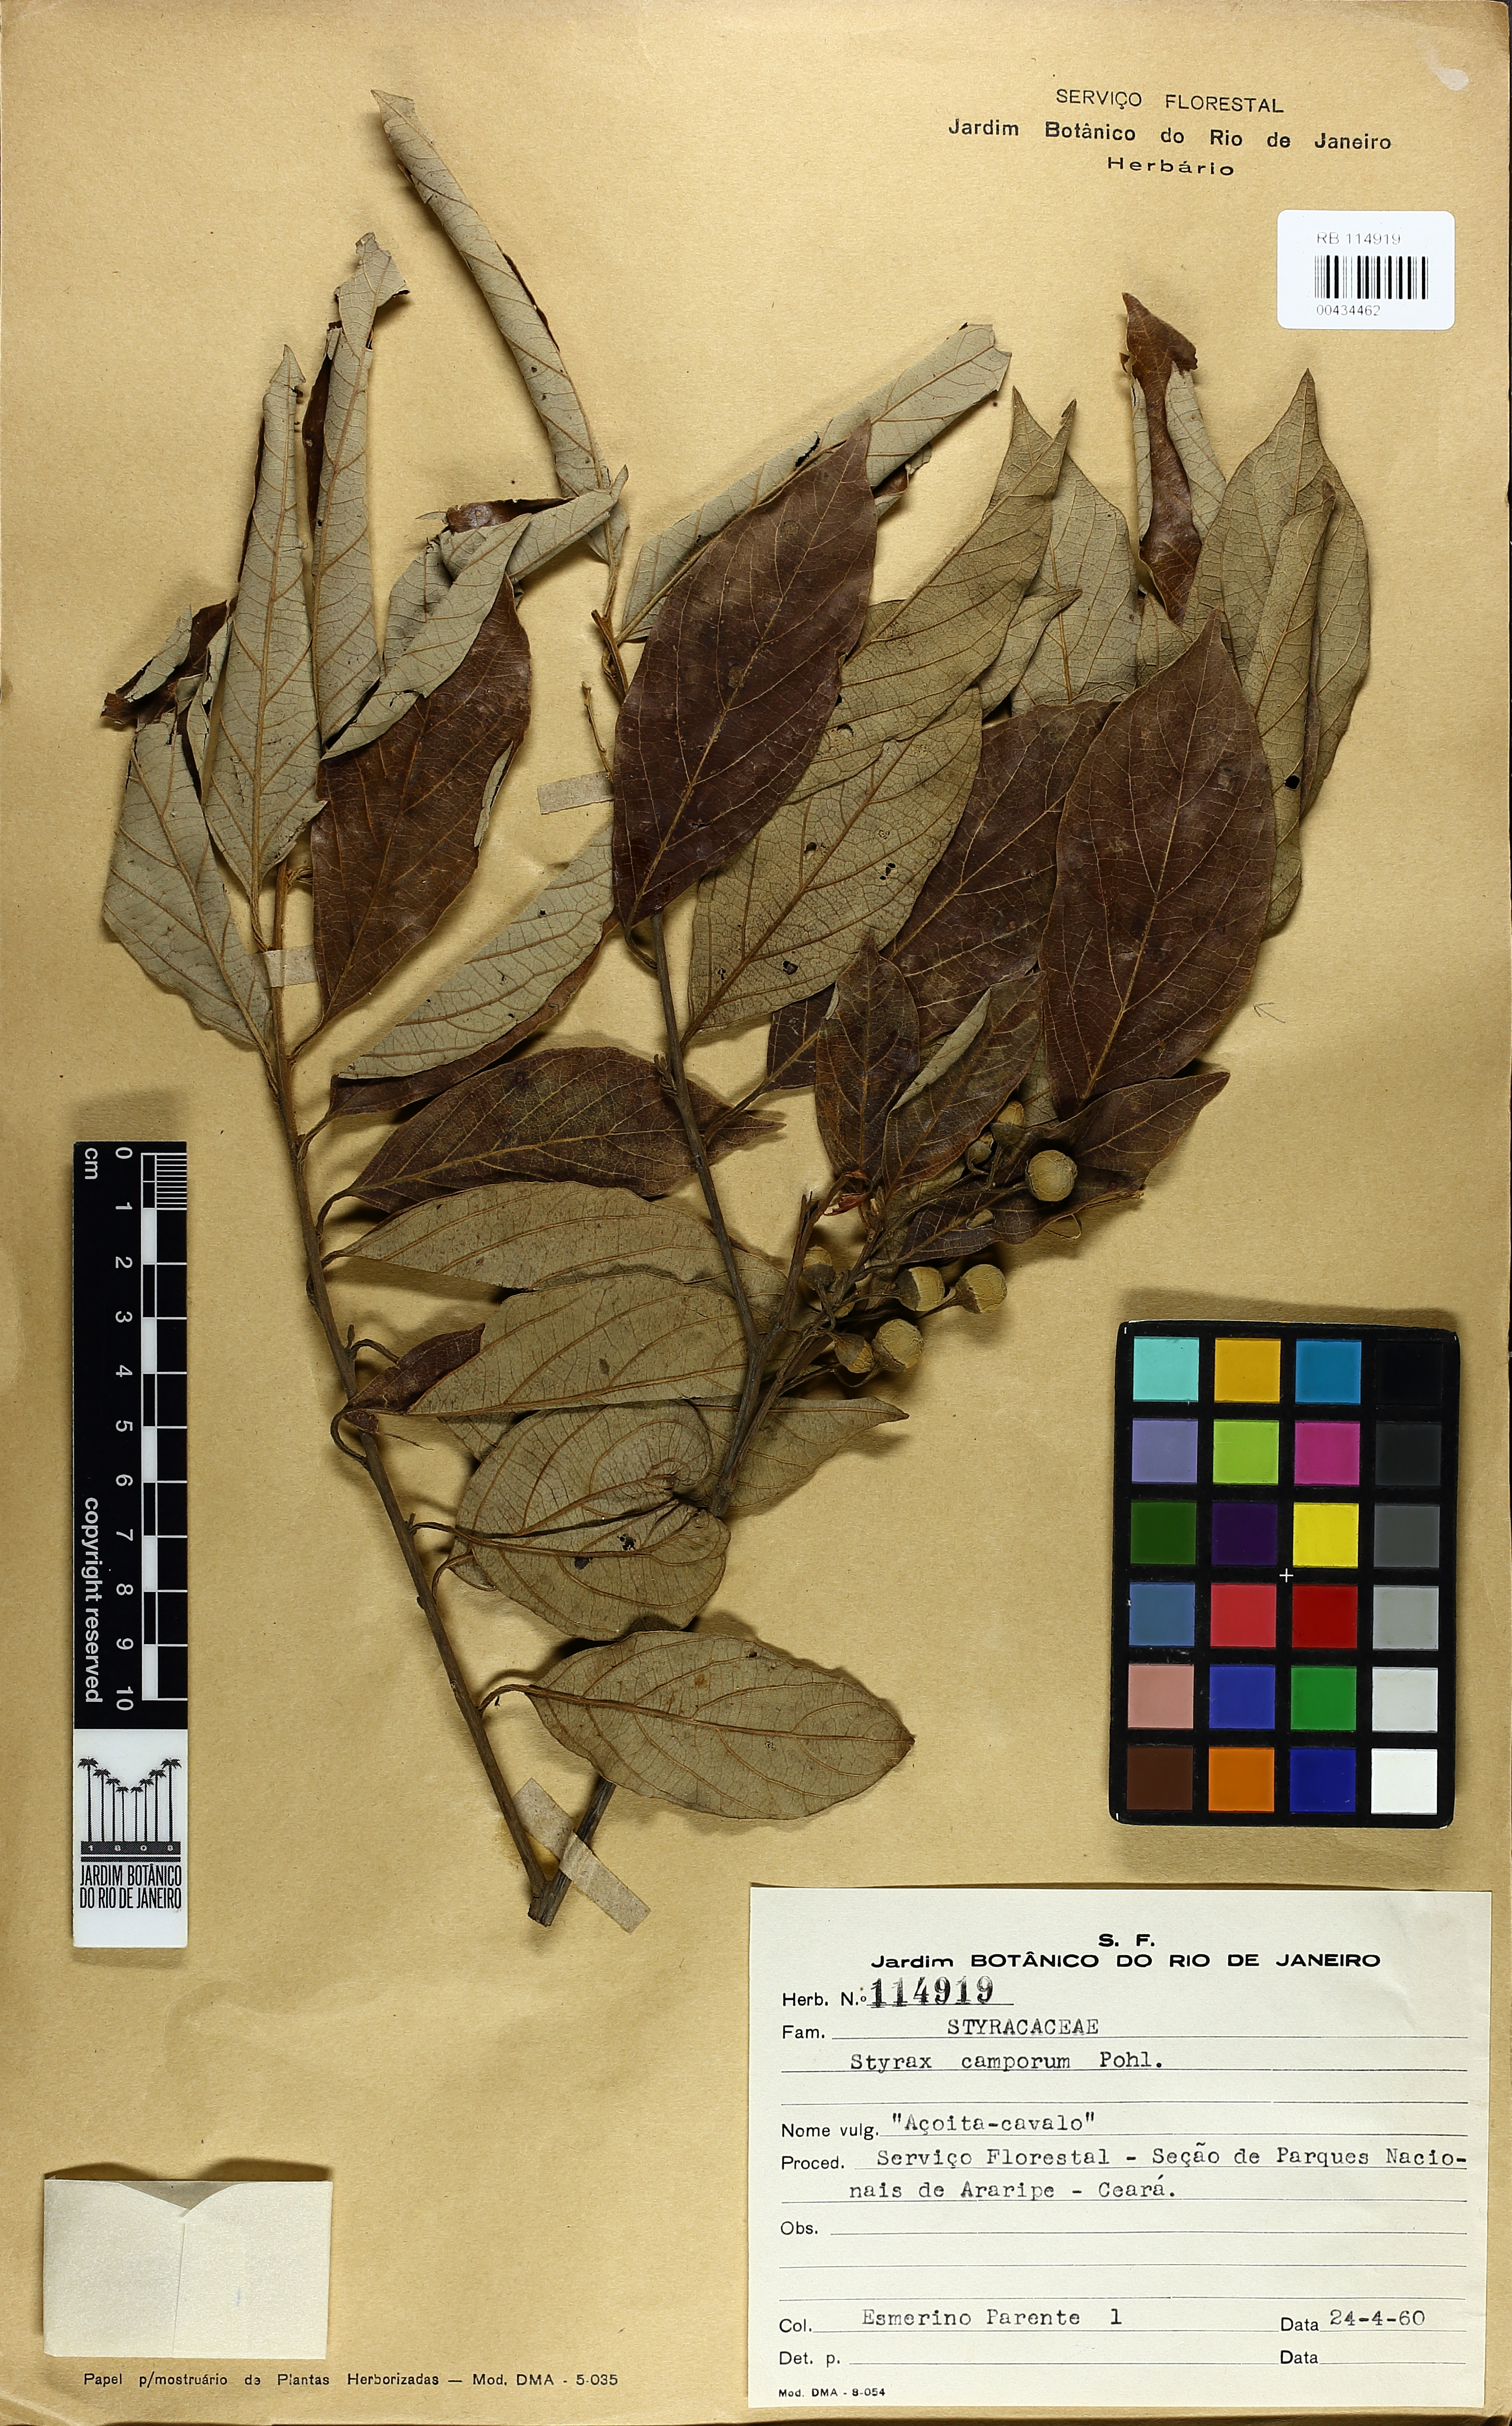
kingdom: Plantae
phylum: Tracheophyta
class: Magnoliopsida
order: Ericales
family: Styracaceae
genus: Styrax
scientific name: Styrax camporum
